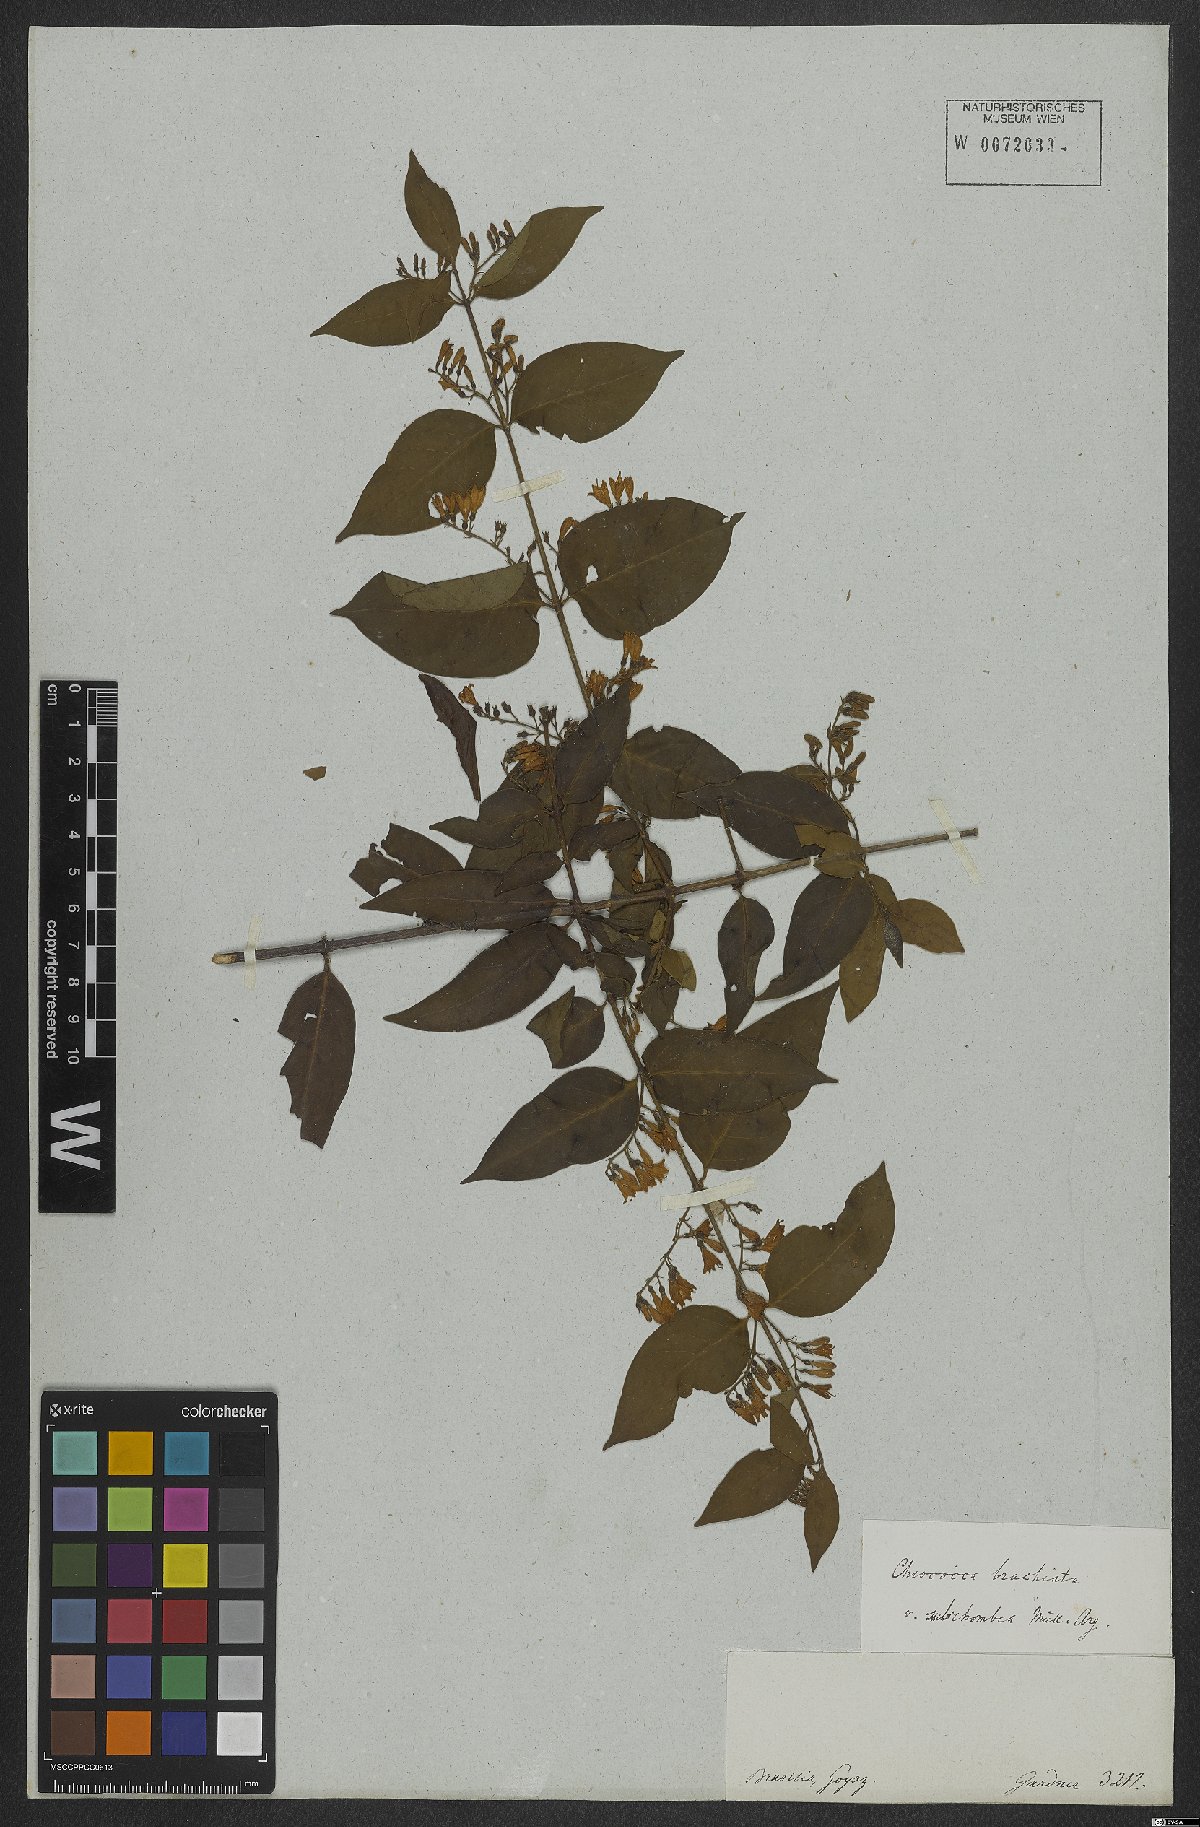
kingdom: Plantae
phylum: Tracheophyta
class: Magnoliopsida
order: Gentianales
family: Rubiaceae
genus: Chiococca
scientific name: Chiococca alba
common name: Snowberry
